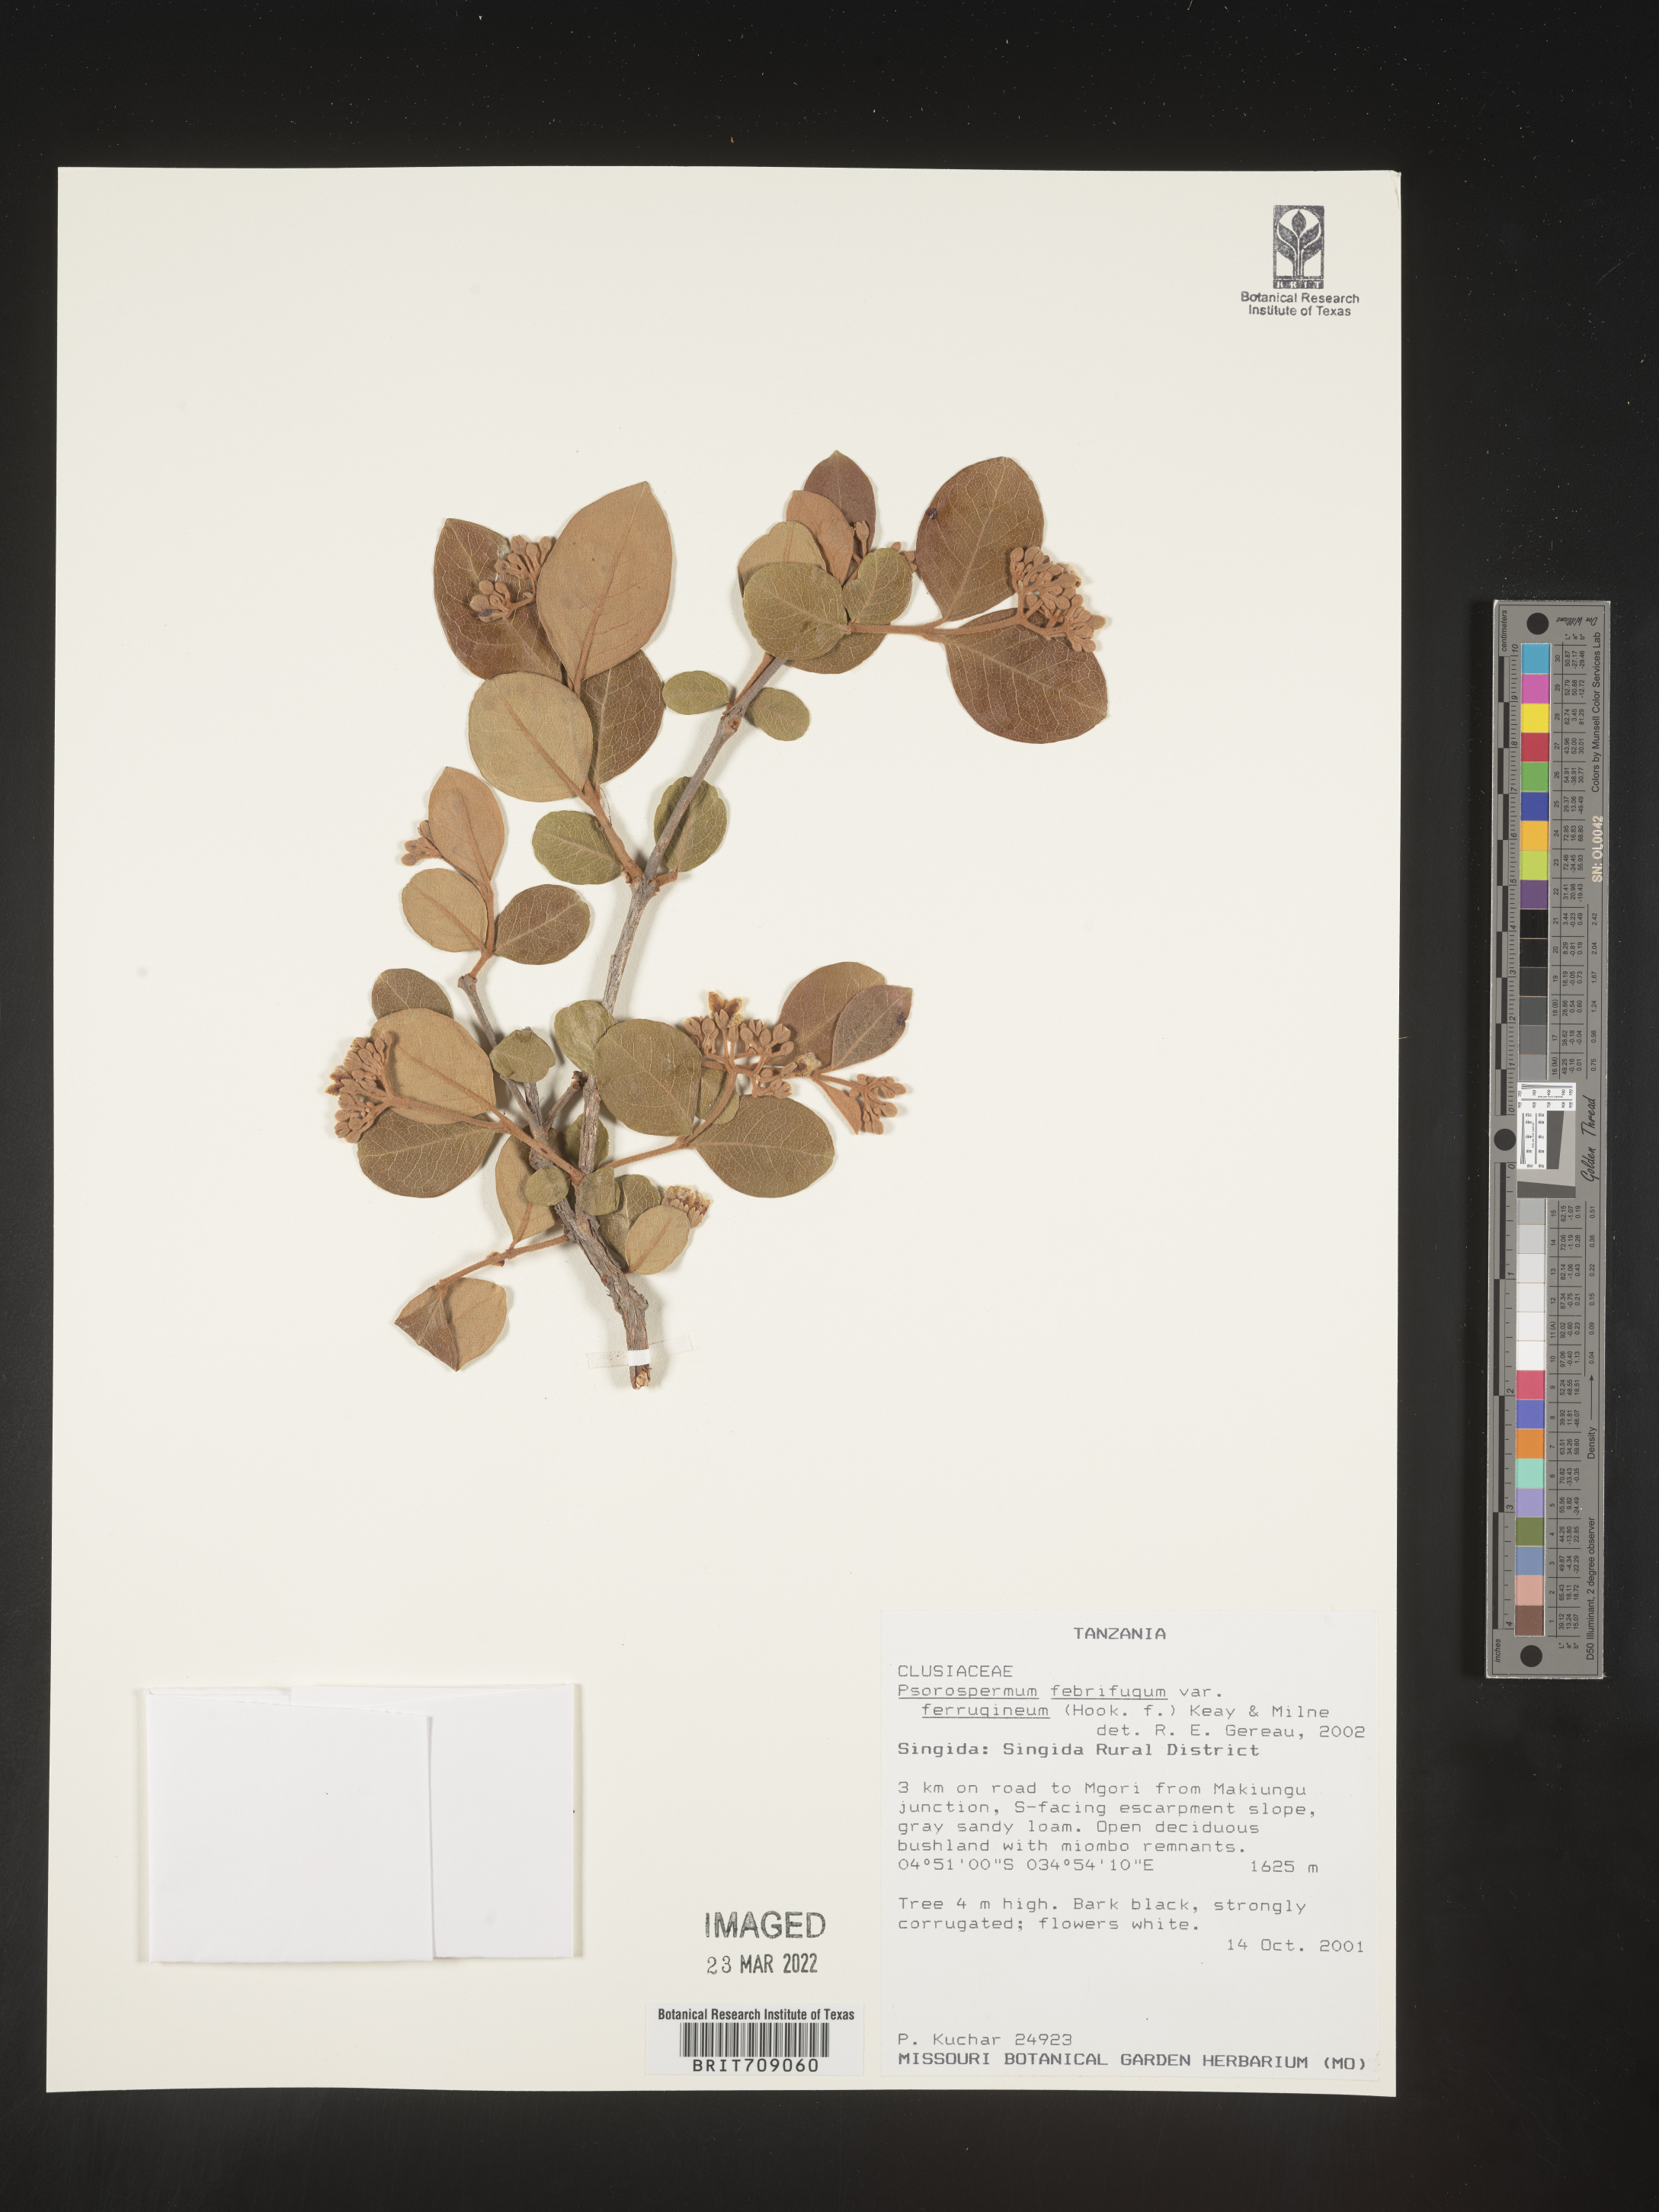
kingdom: Plantae
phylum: Tracheophyta
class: Magnoliopsida
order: Malpighiales
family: Hypericaceae
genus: Psorospermum
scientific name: Psorospermum
